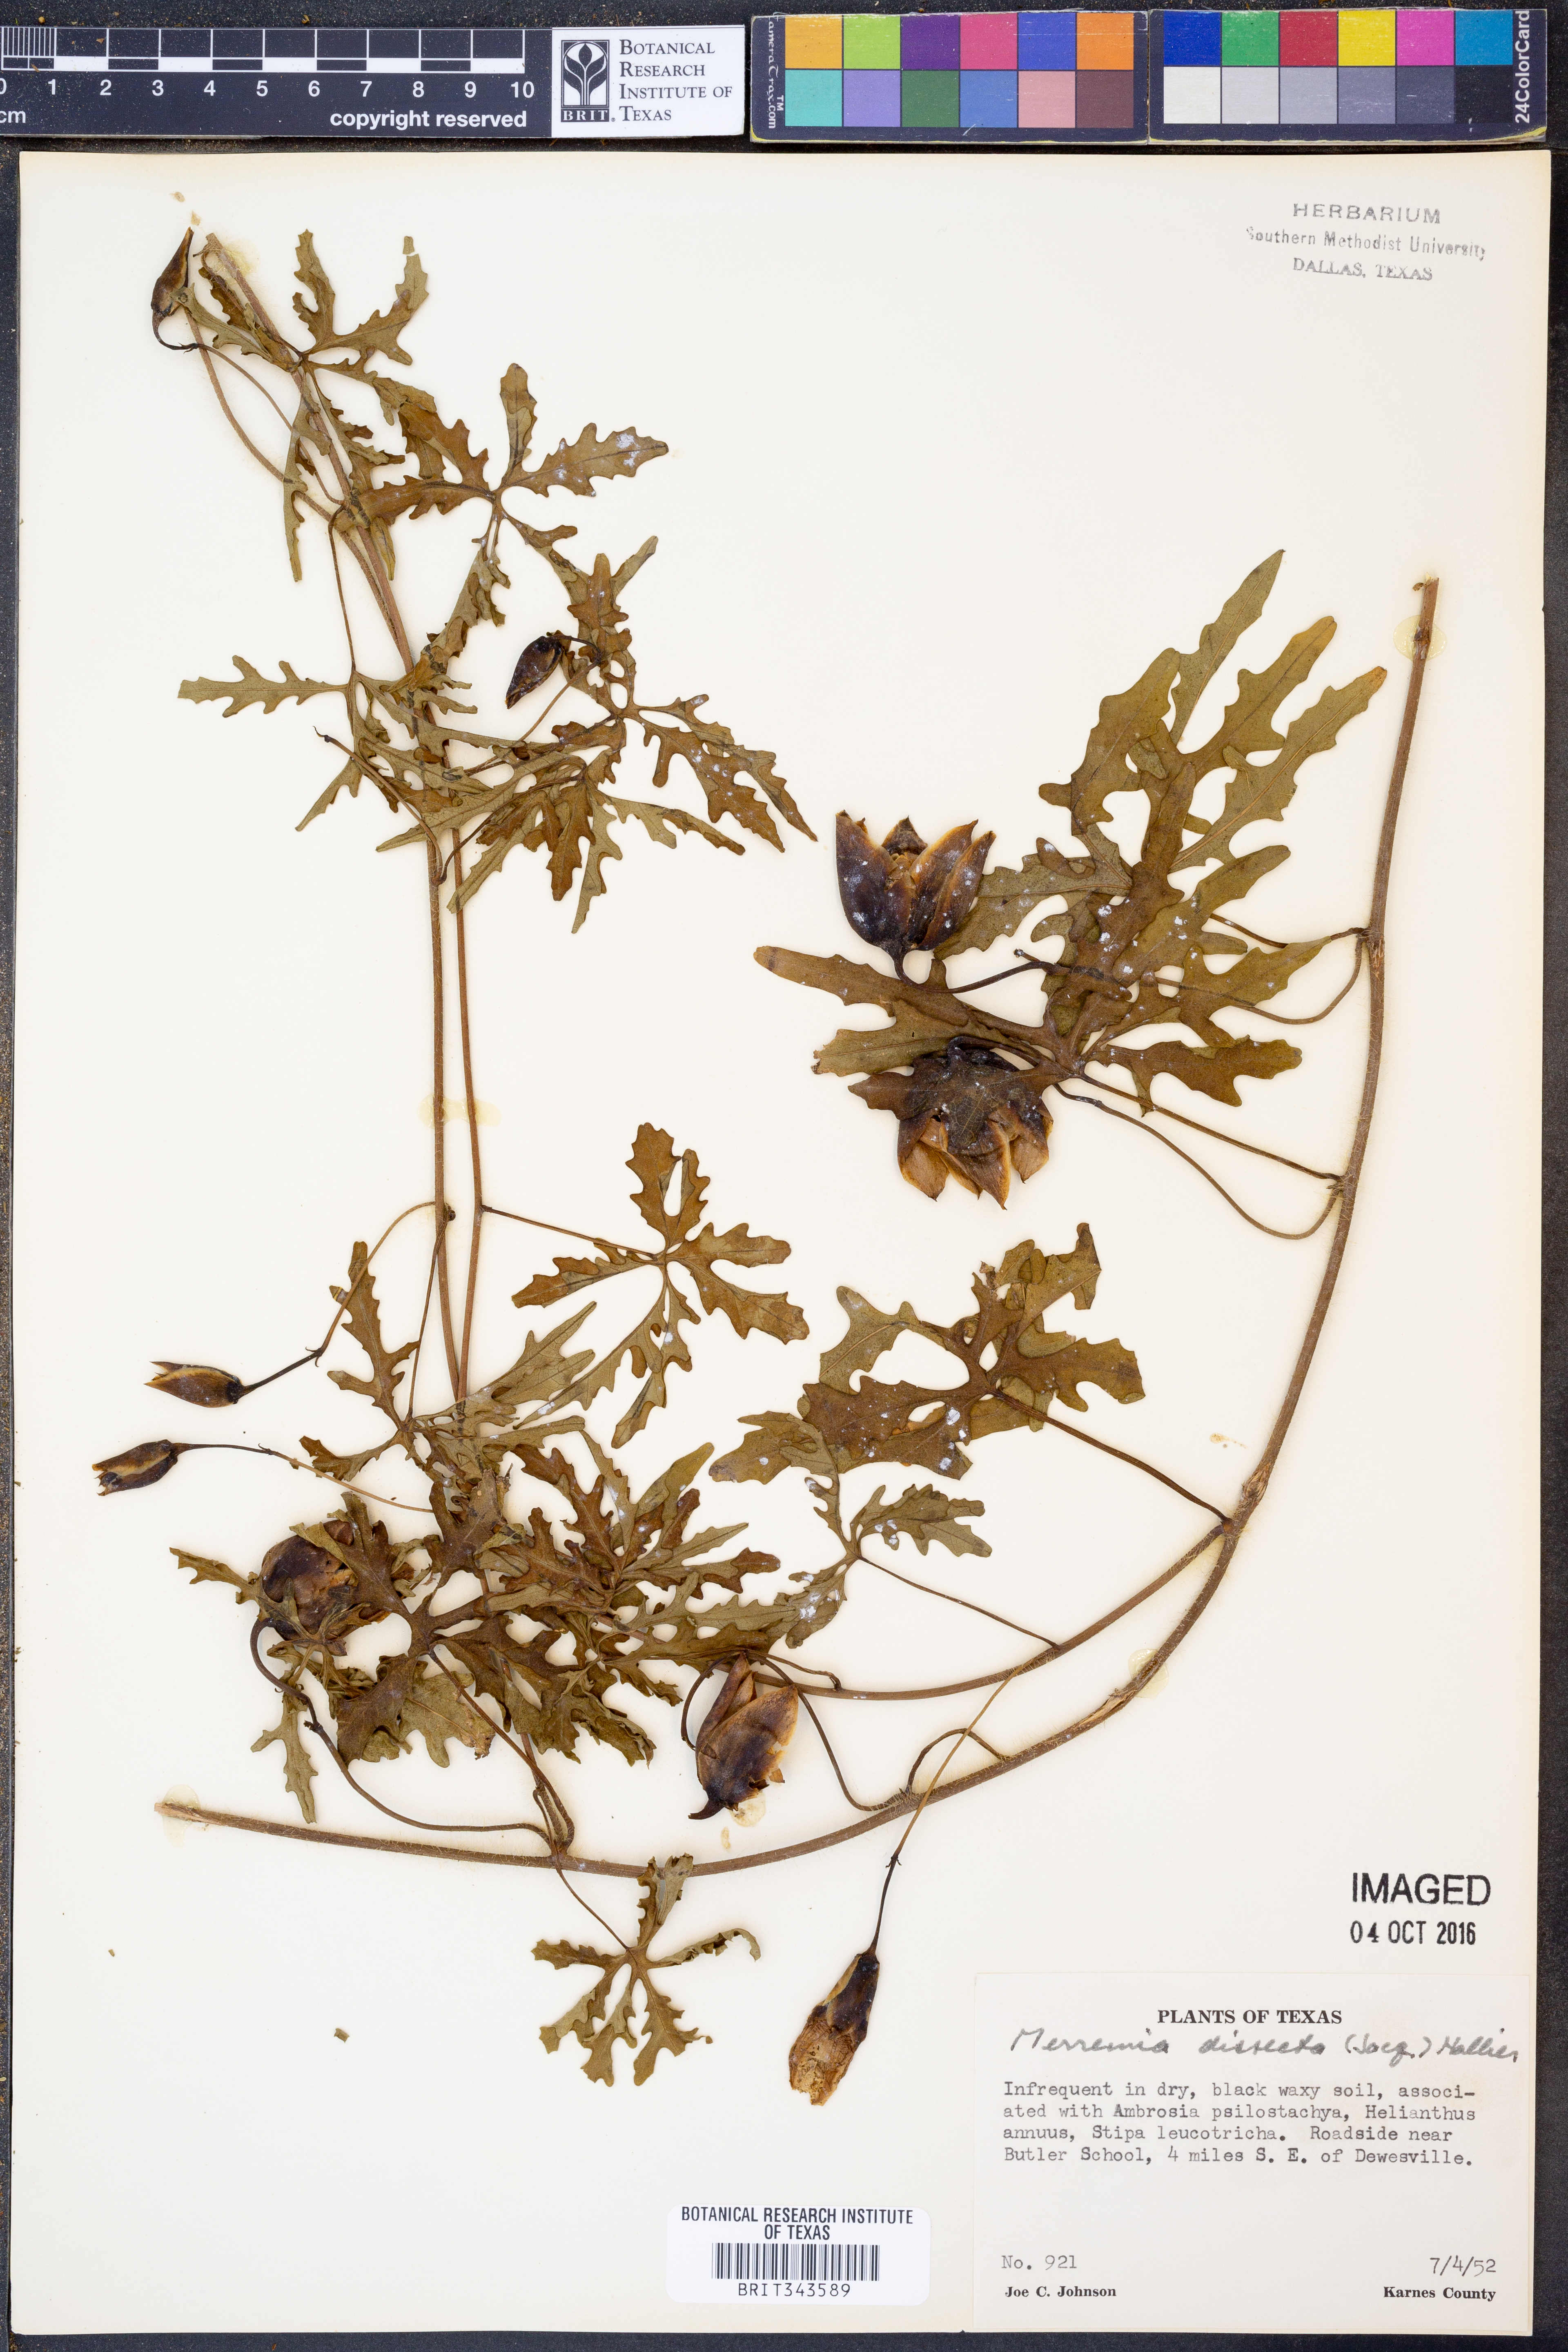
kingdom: Plantae
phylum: Tracheophyta
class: Magnoliopsida
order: Solanales
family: Convolvulaceae
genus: Distimake
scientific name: Distimake dissectus
